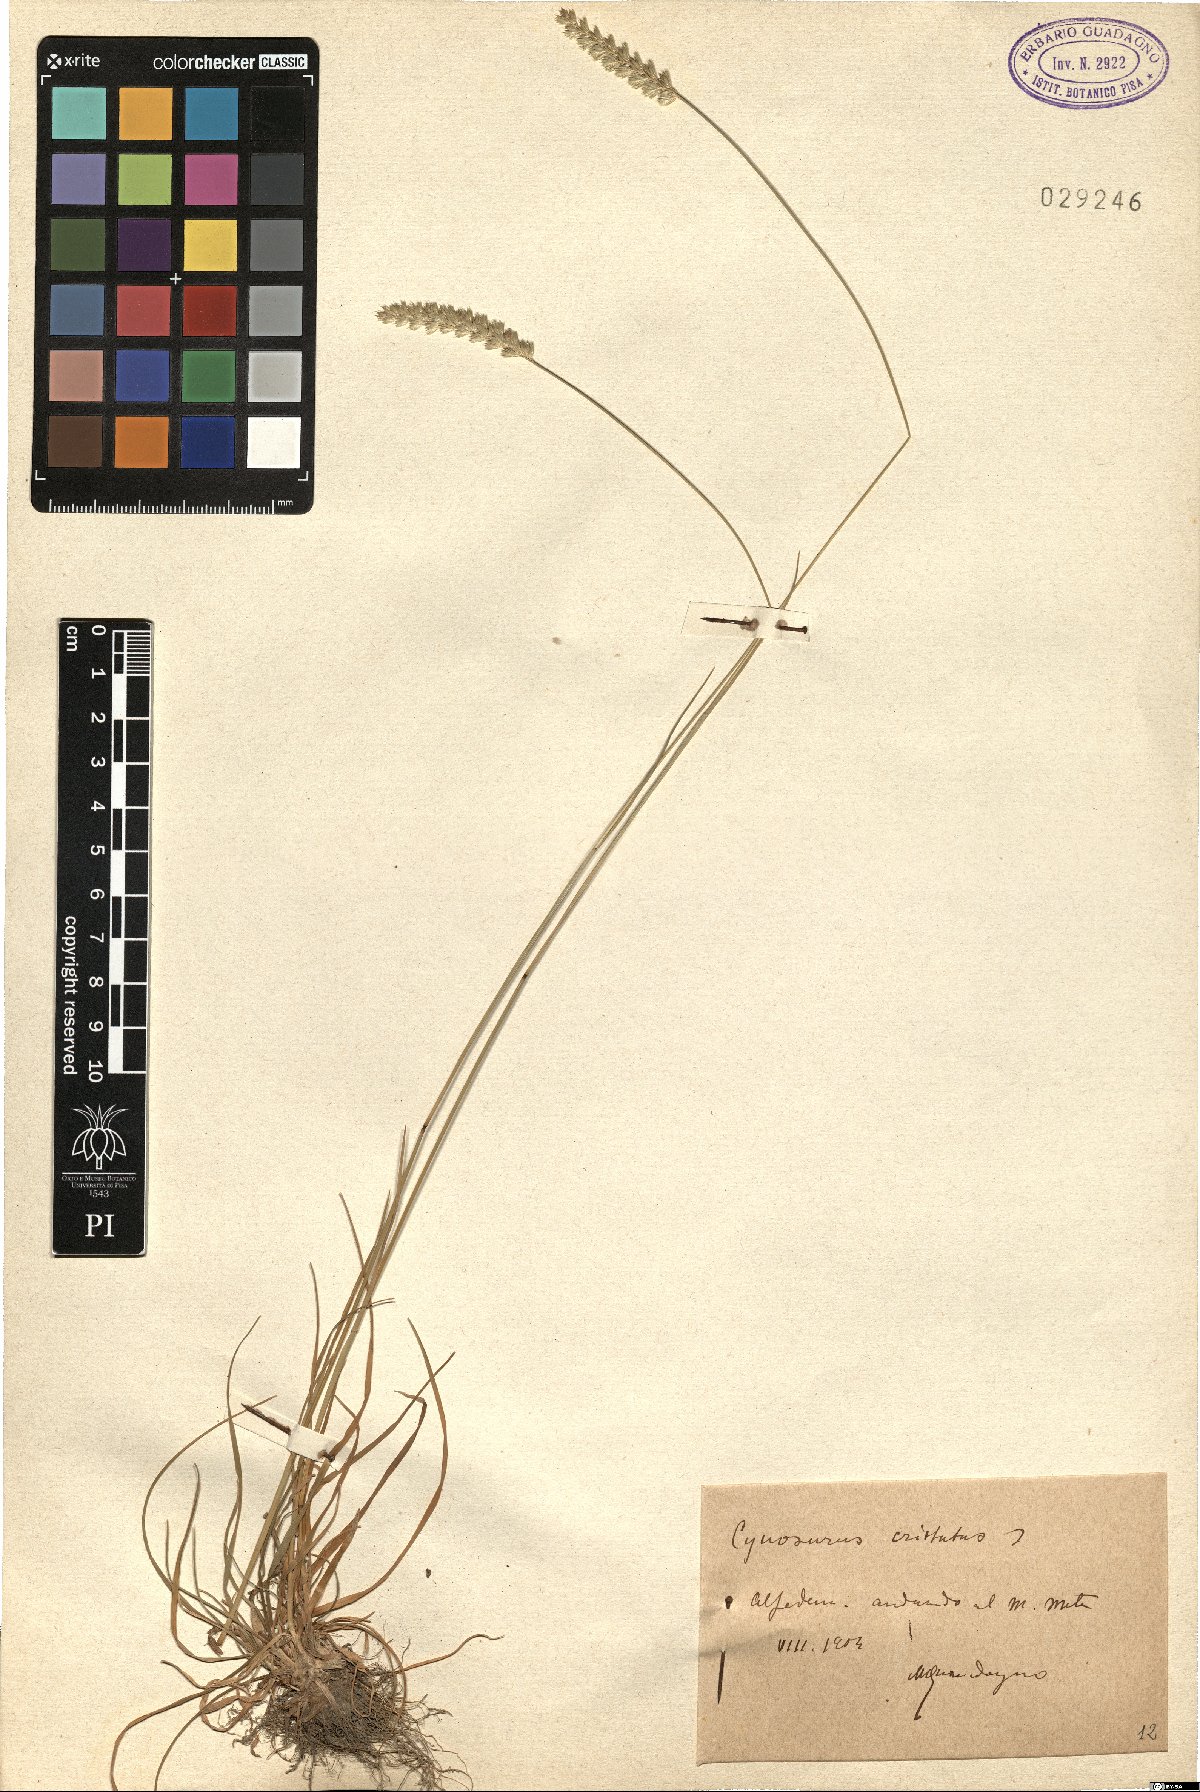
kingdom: Plantae
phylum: Tracheophyta
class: Liliopsida
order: Poales
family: Poaceae
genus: Cynosurus
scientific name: Cynosurus cristatus
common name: Crested dog's-tail
